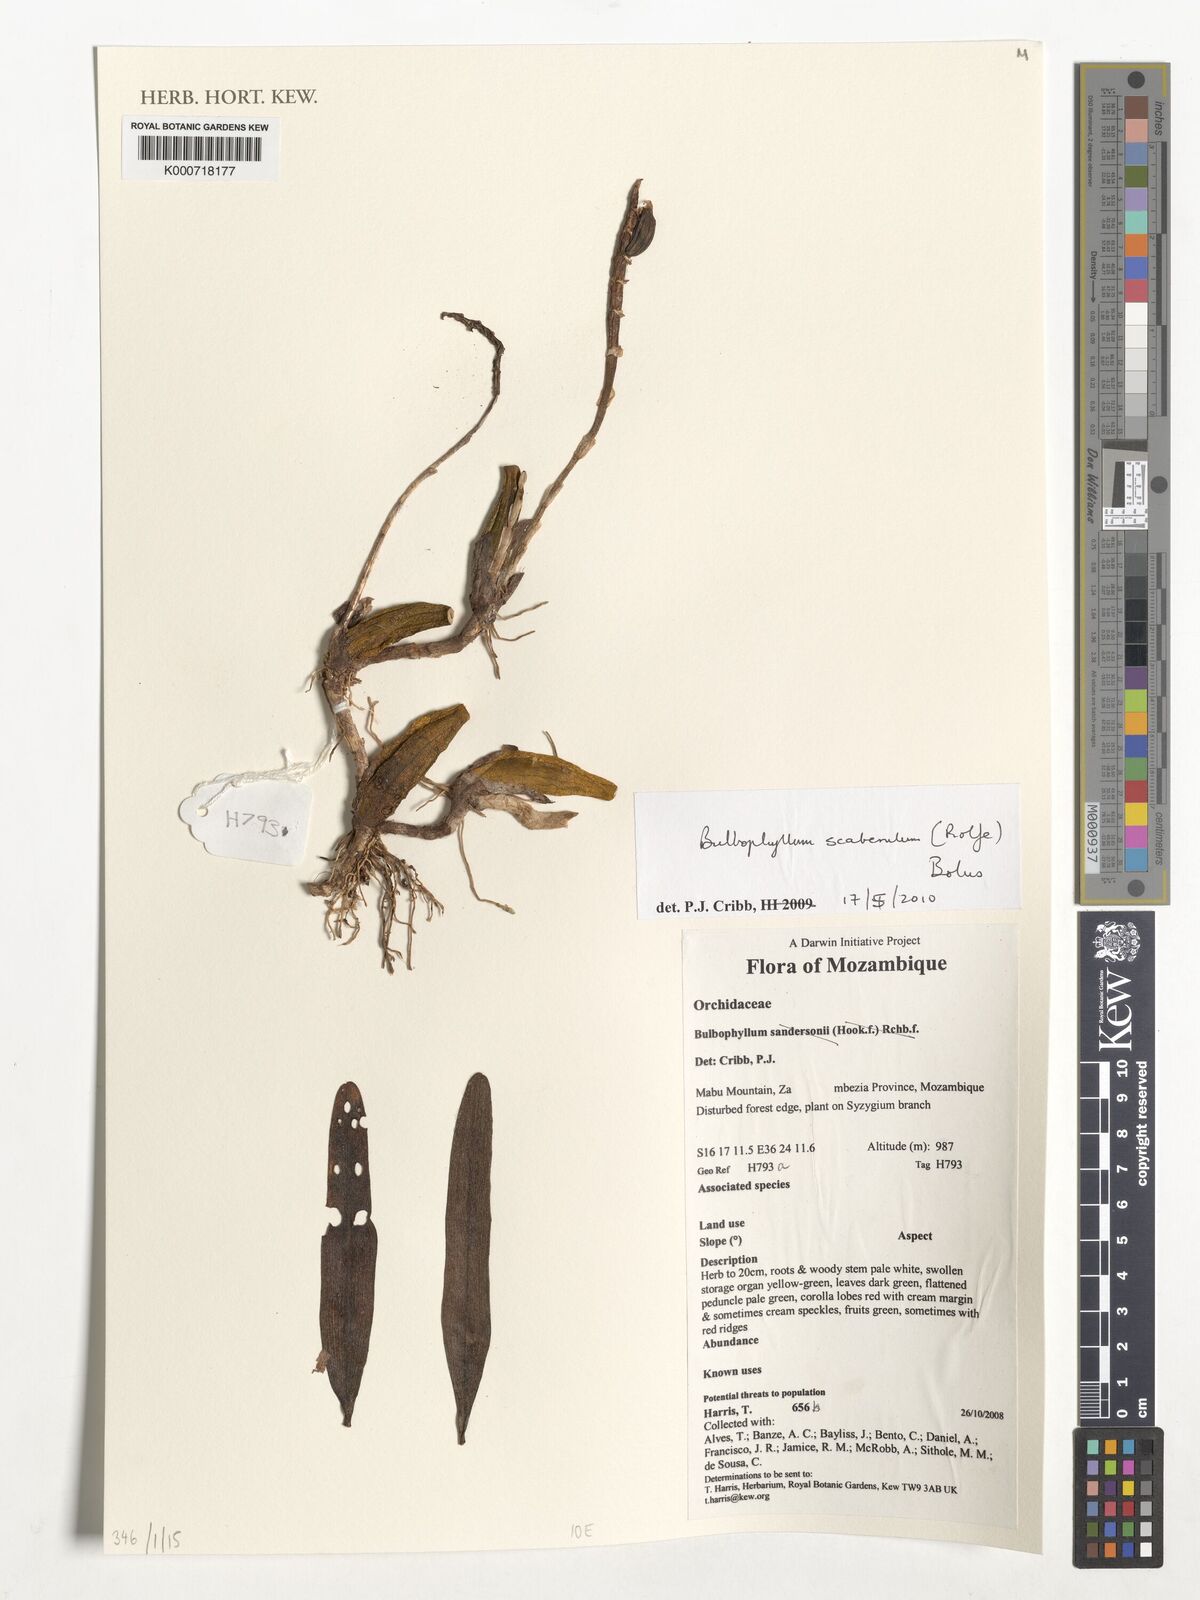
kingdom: Plantae
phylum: Tracheophyta
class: Liliopsida
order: Asparagales
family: Orchidaceae
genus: Bulbophyllum
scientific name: Bulbophyllum scaberulum
